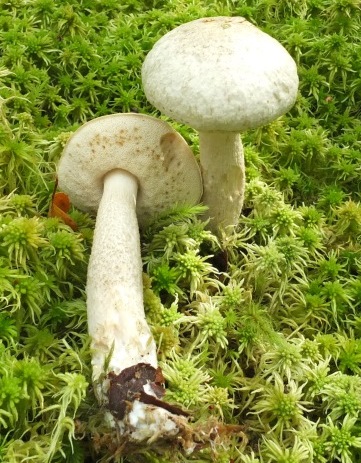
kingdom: Fungi
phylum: Basidiomycota
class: Agaricomycetes
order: Boletales
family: Boletaceae
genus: Leccinum
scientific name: Leccinum scabrum
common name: hvid skælrørhat
